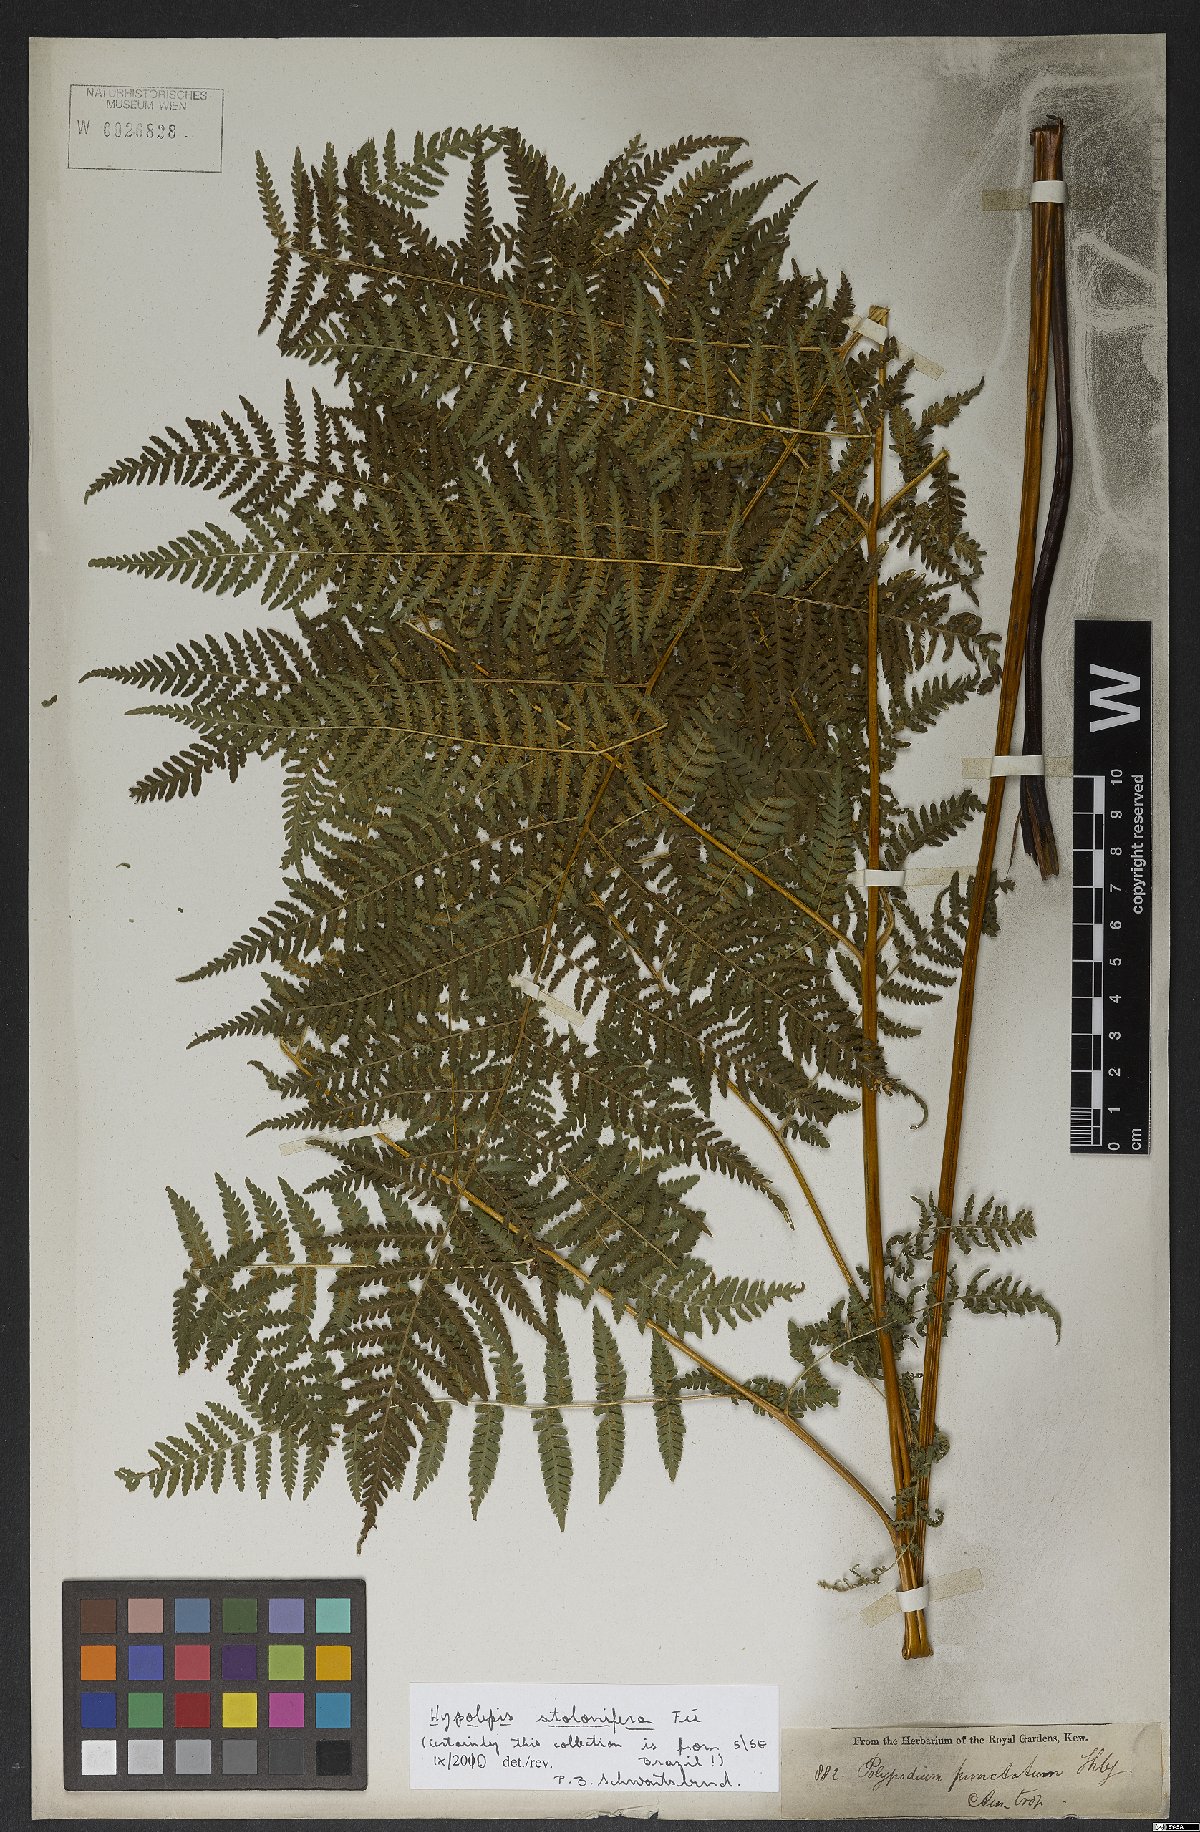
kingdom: Plantae
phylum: Tracheophyta
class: Polypodiopsida
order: Polypodiales
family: Dennstaedtiaceae
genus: Hypolepis
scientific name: Hypolepis stolonifera
